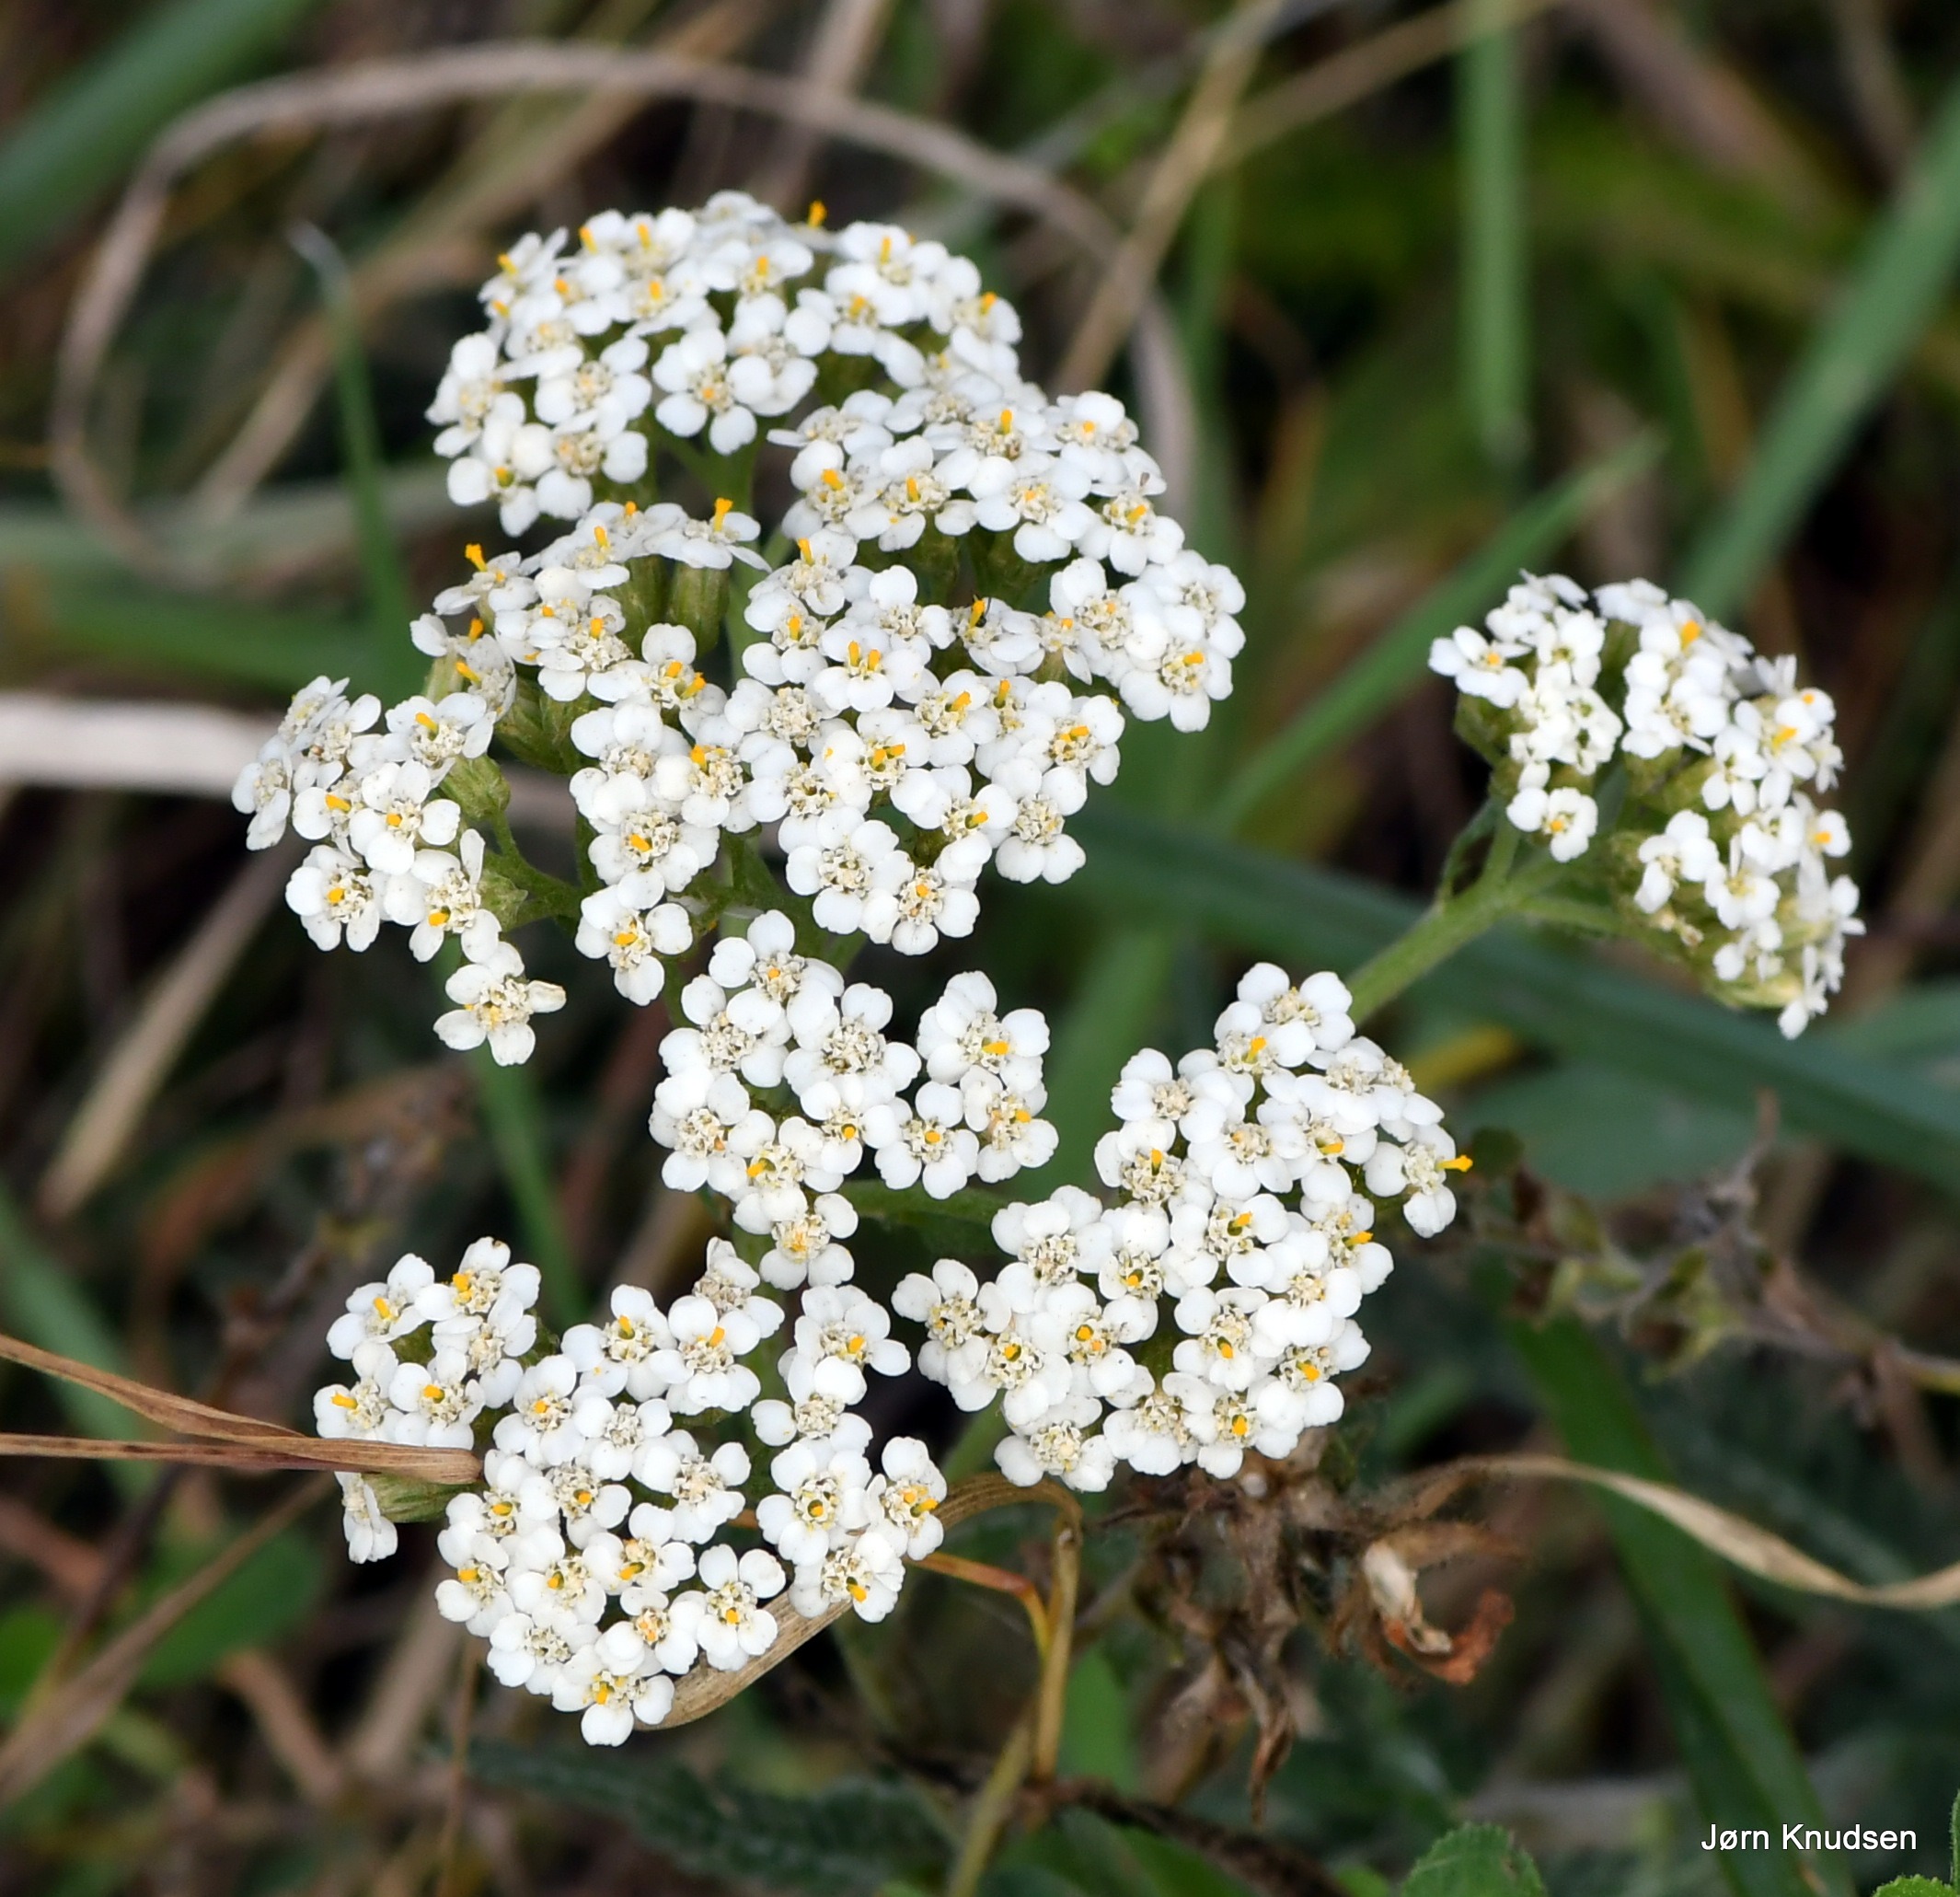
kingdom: Plantae
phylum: Tracheophyta
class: Magnoliopsida
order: Asterales
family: Asteraceae
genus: Achillea
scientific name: Achillea millefolium
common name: Almindelig røllike
